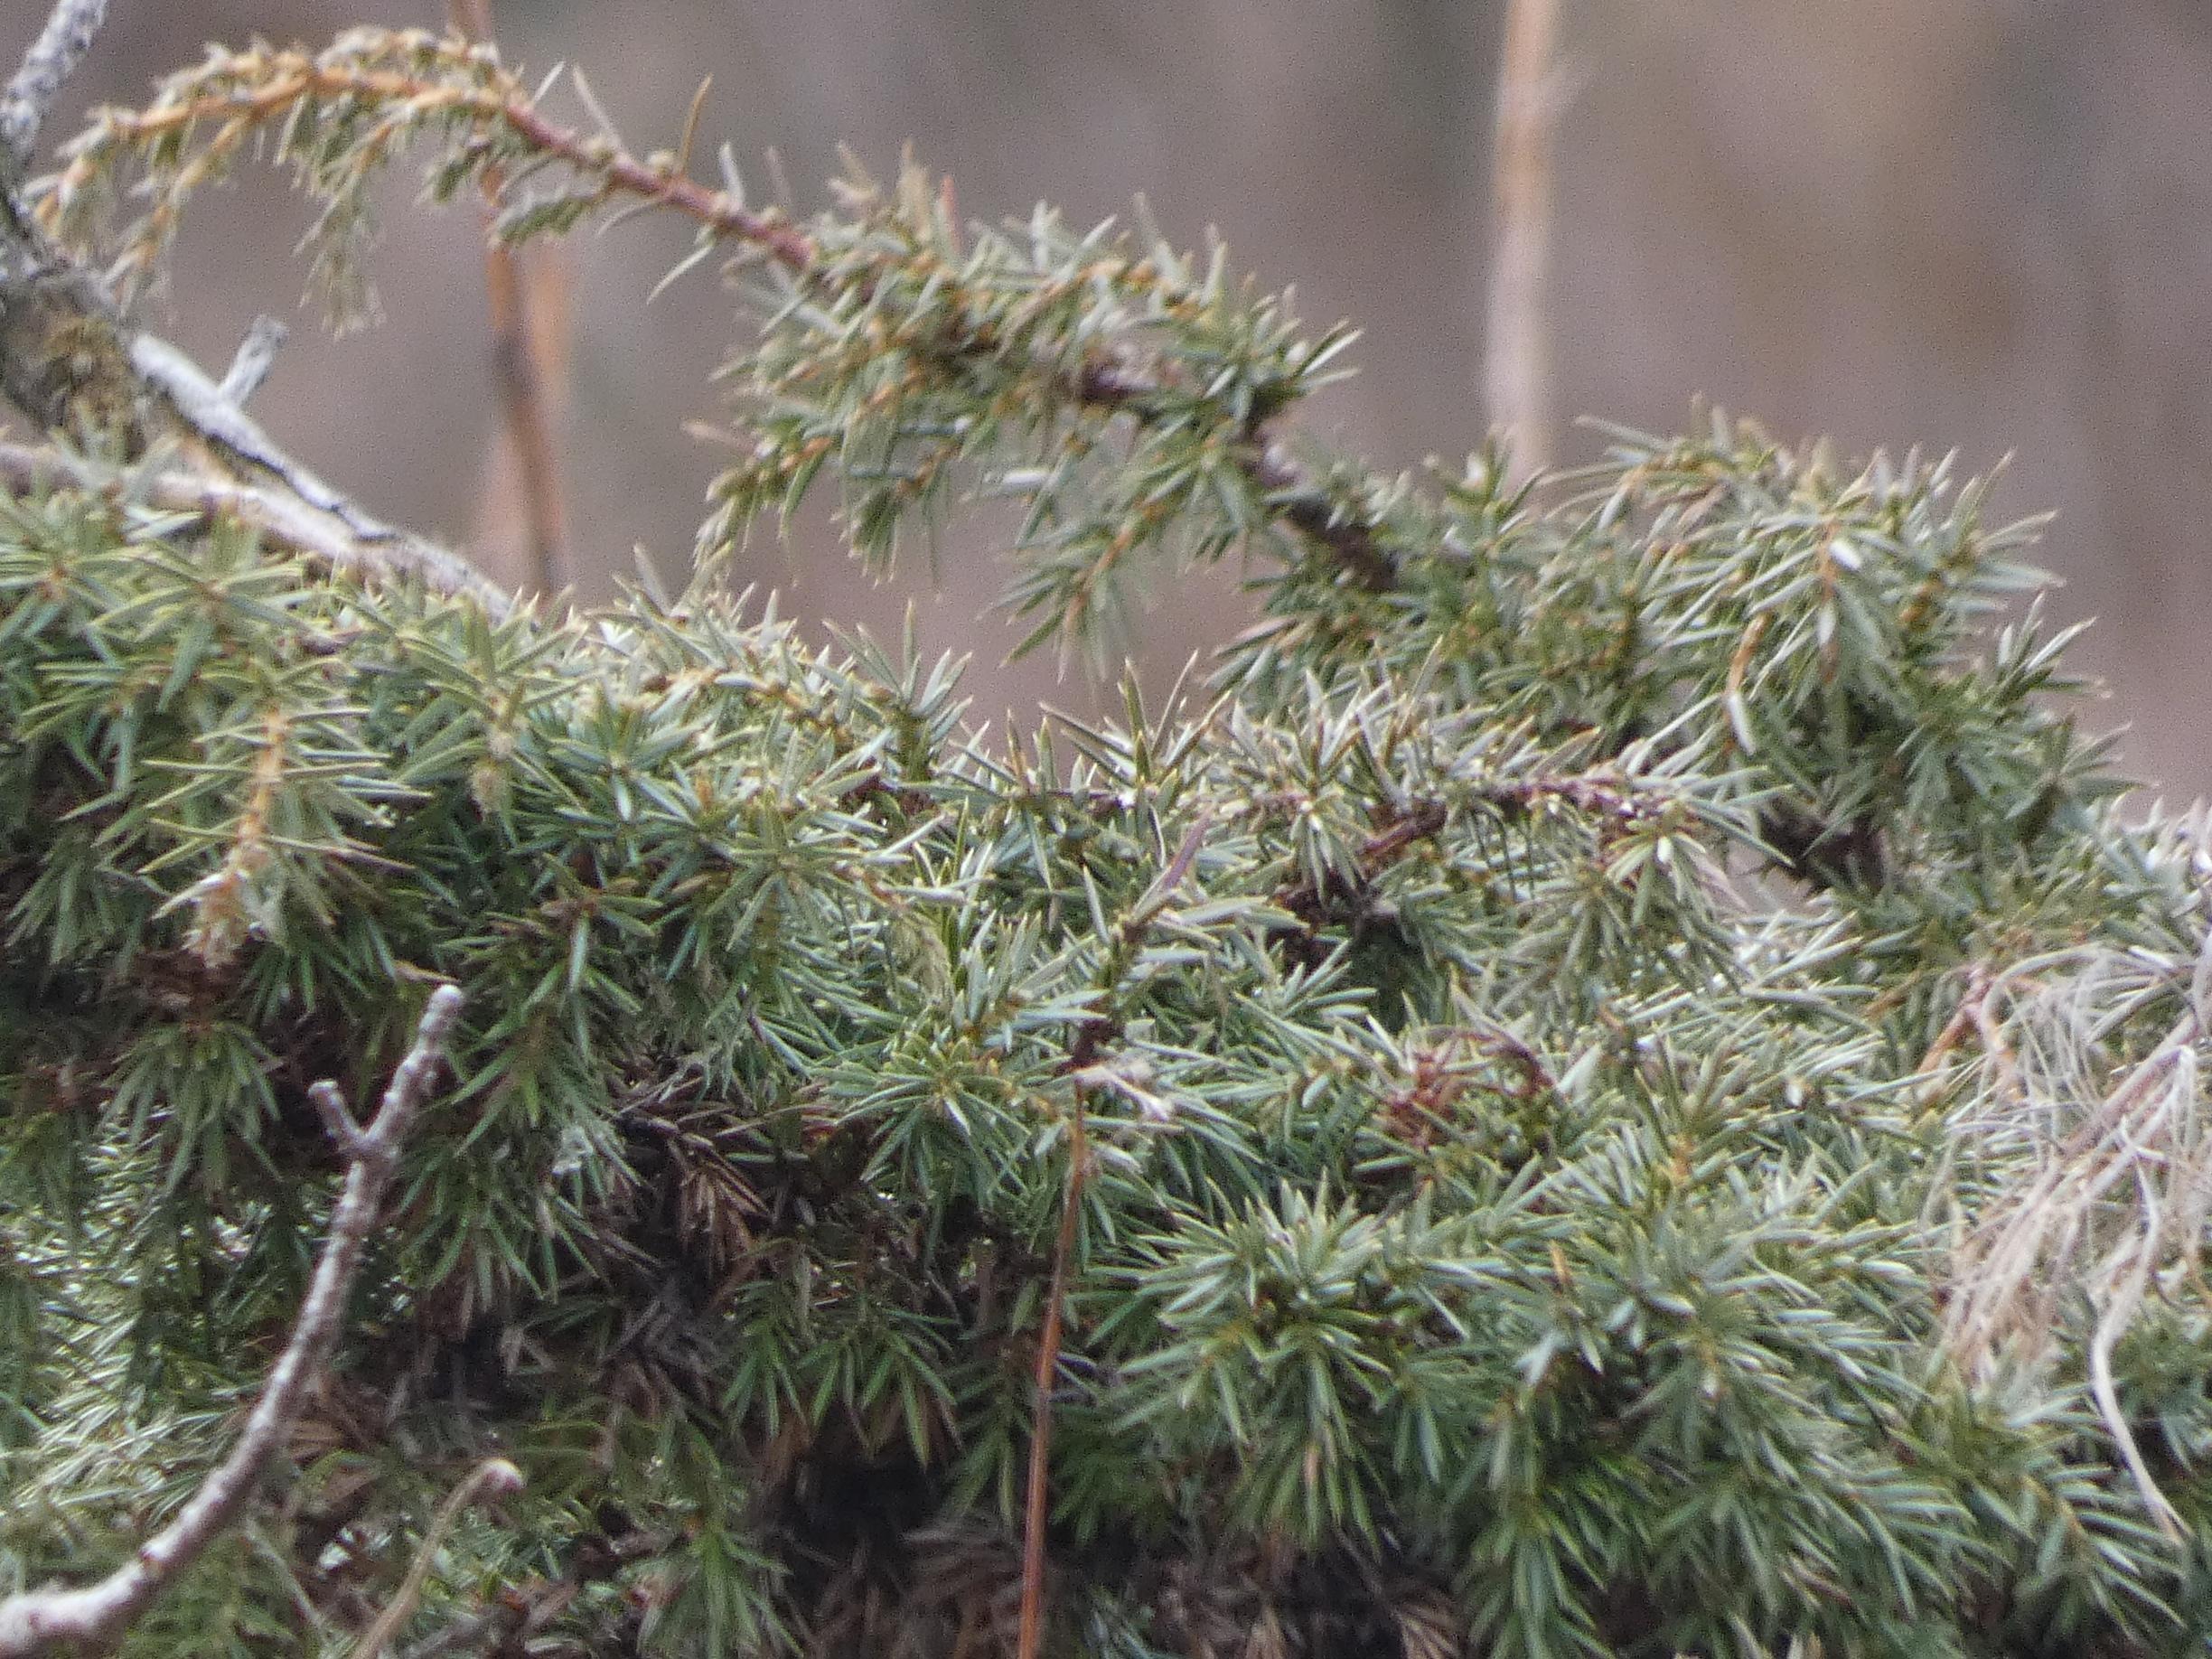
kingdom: Plantae
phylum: Tracheophyta
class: Pinopsida
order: Pinales
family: Cupressaceae
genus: Juniperus
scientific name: Juniperus communis
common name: Almindelig ene
